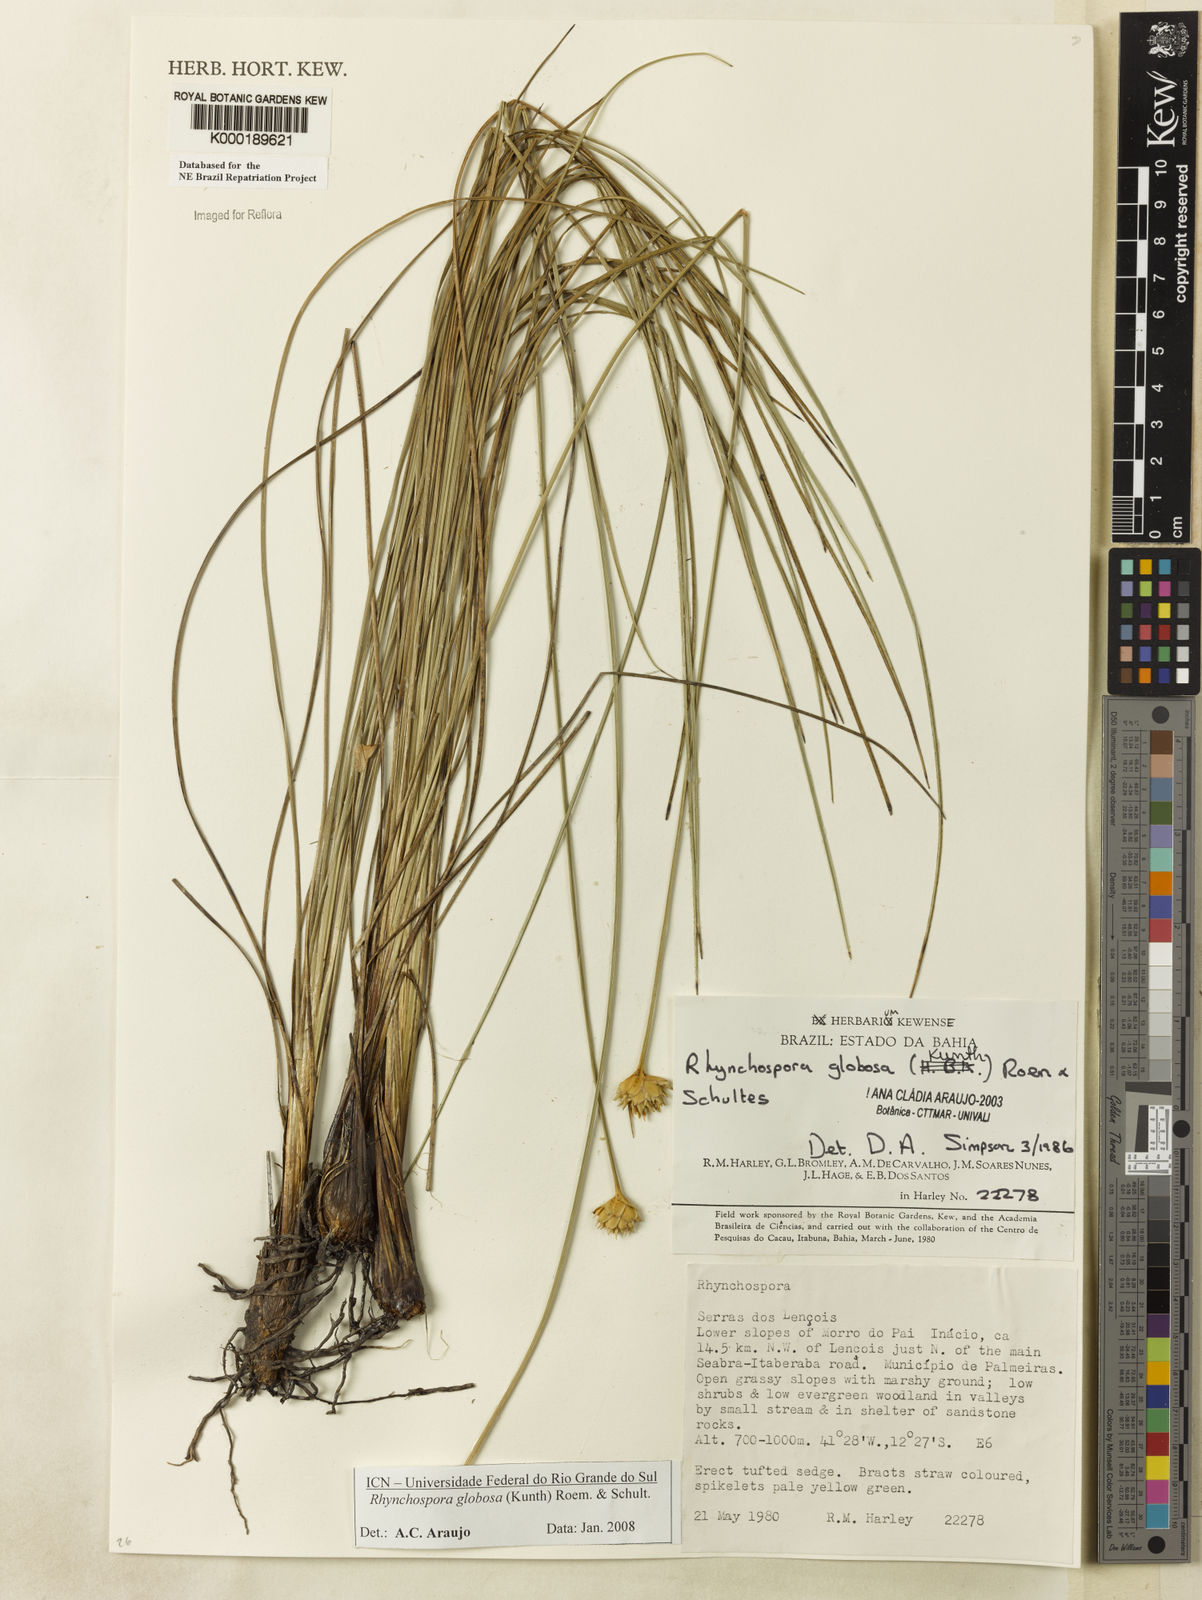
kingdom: Plantae
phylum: Tracheophyta
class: Liliopsida
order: Poales
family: Cyperaceae
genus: Rhynchospora
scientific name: Rhynchospora globosa
